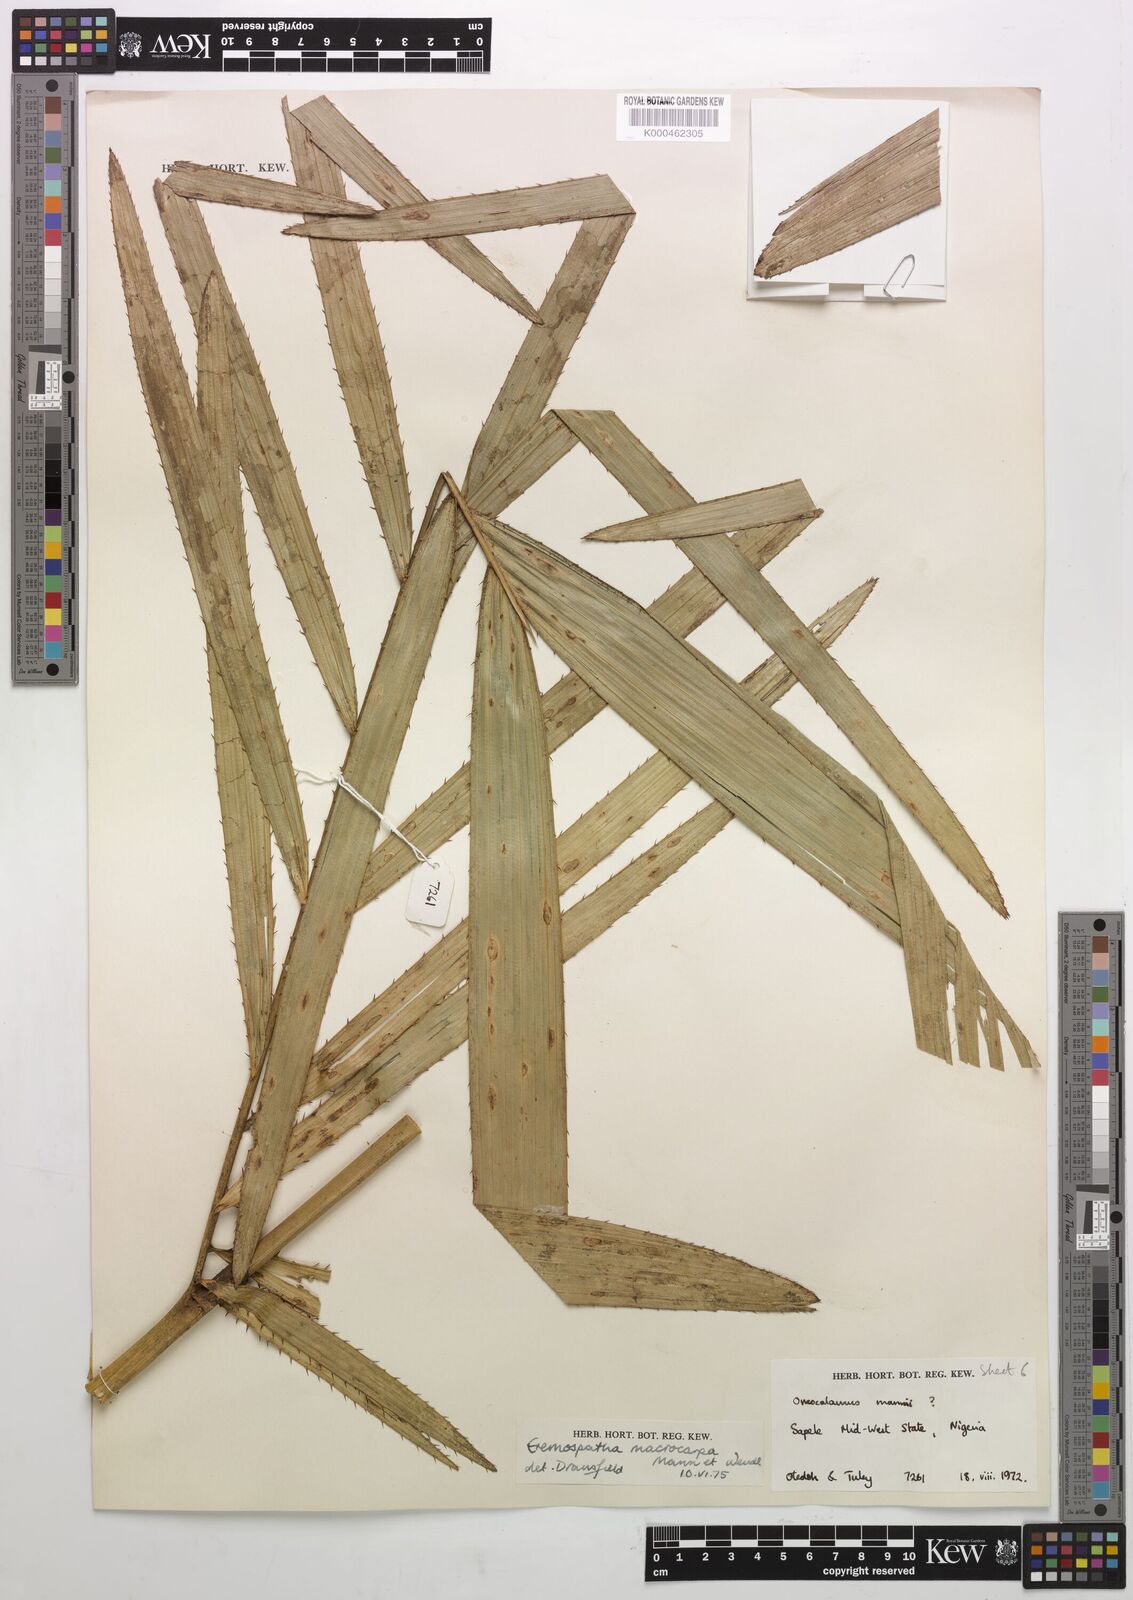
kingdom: Plantae
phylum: Tracheophyta
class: Liliopsida
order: Arecales
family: Arecaceae
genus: Eremospatha
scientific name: Eremospatha
